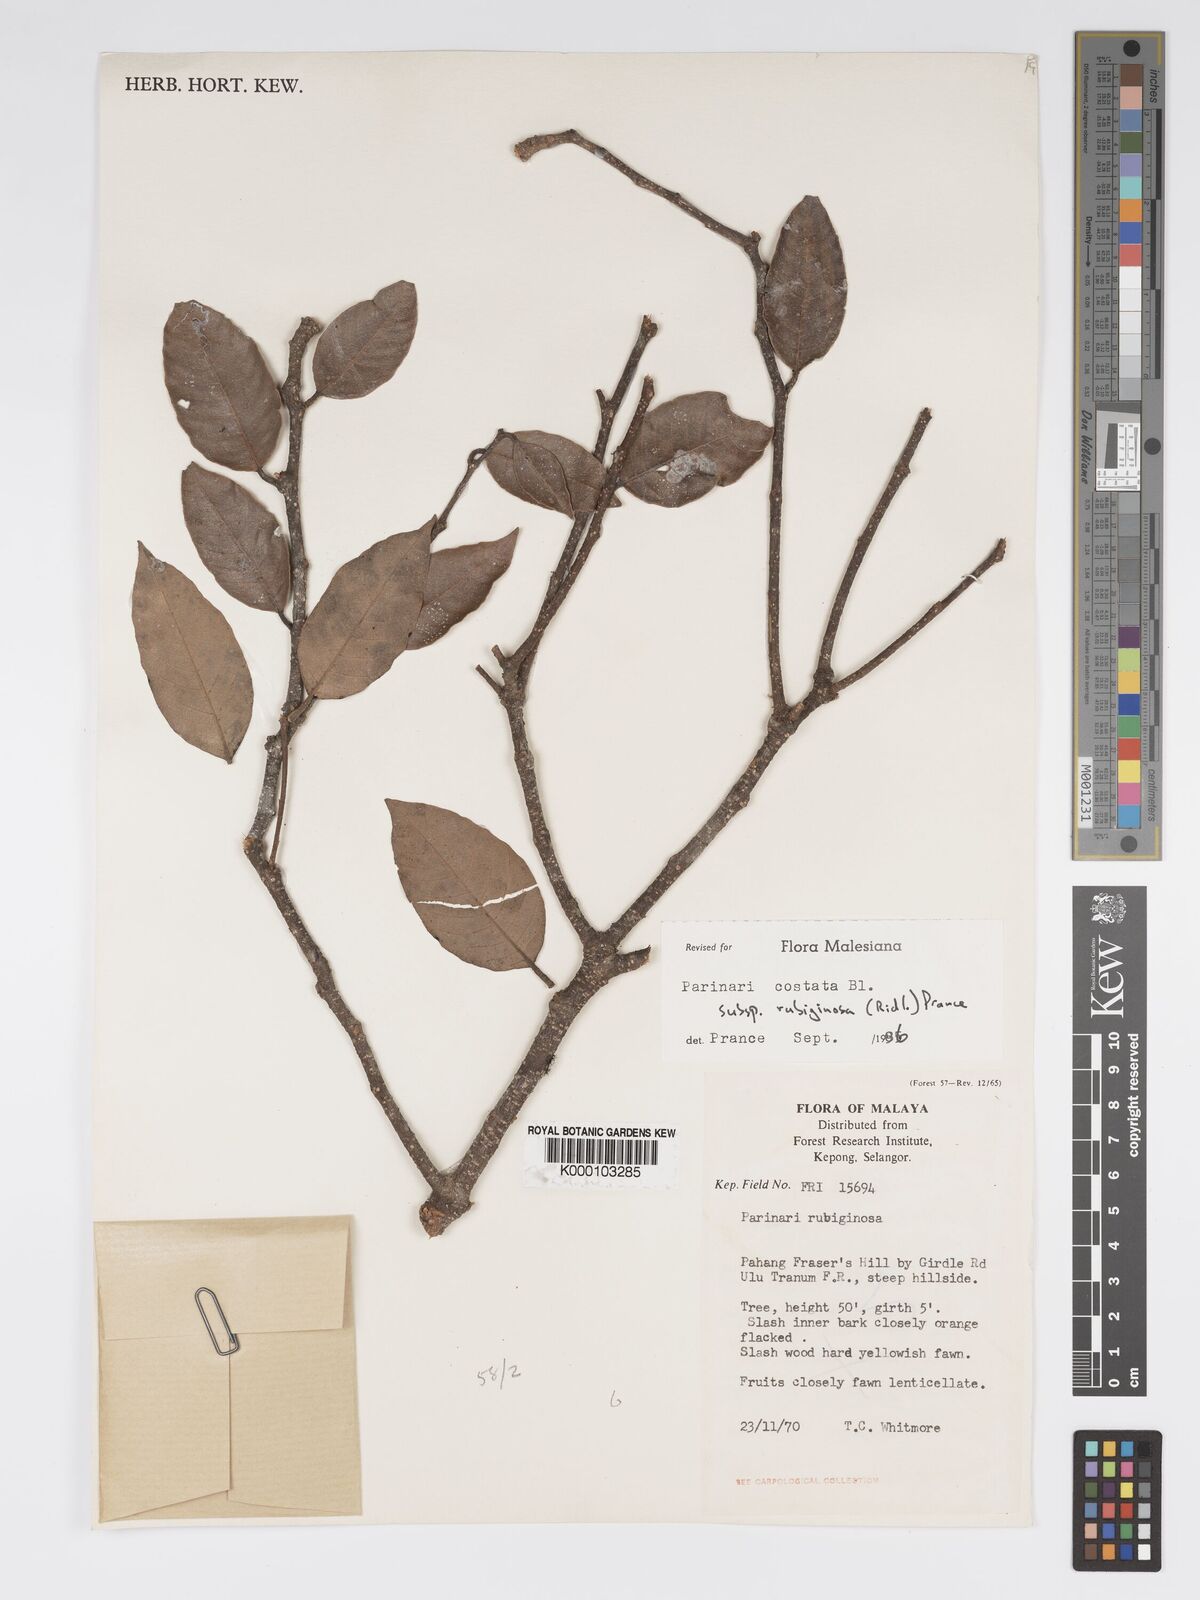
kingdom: Plantae
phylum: Tracheophyta
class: Magnoliopsida
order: Malpighiales
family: Chrysobalanaceae
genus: Parinari
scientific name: Parinari costata
